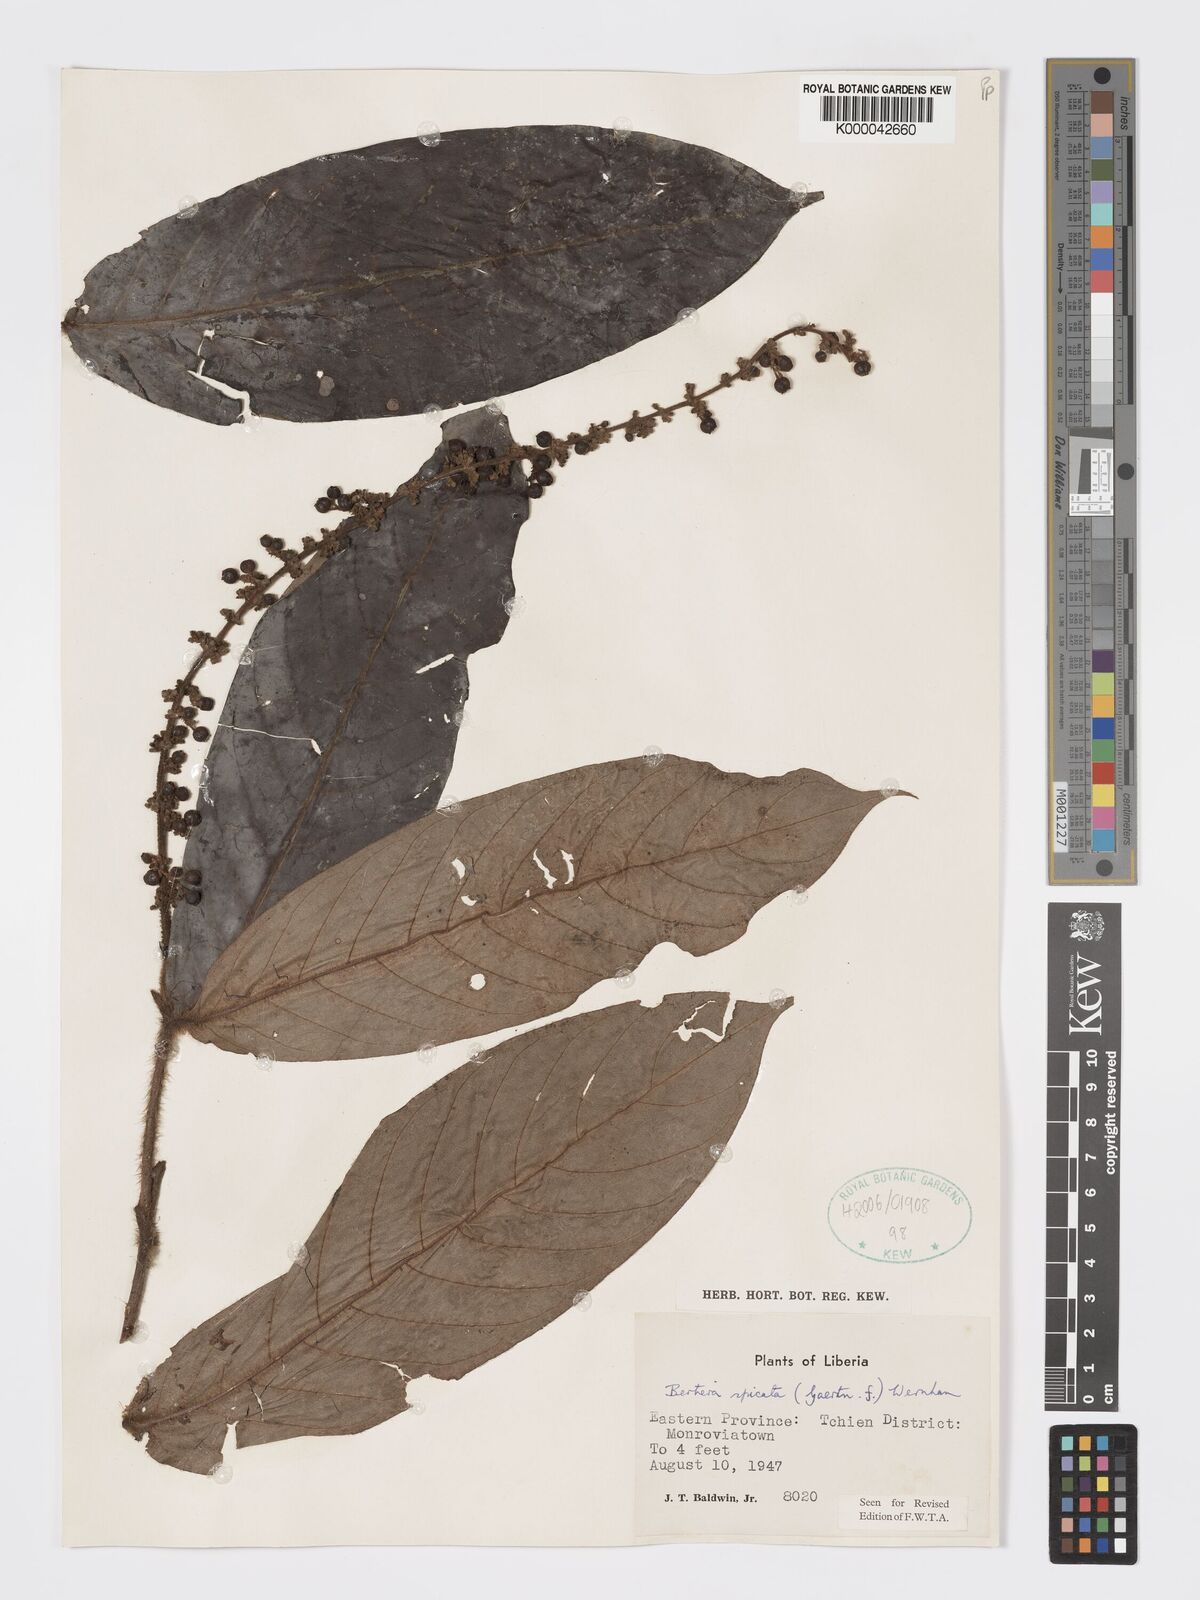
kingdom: Plantae
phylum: Tracheophyta
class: Magnoliopsida
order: Gentianales
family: Rubiaceae
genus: Bertiera
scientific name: Bertiera
